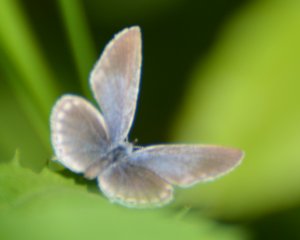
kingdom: Animalia
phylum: Arthropoda
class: Insecta
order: Lepidoptera
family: Lycaenidae
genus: Elkalyce
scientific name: Elkalyce amyntula
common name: Western Tailed-Blue
